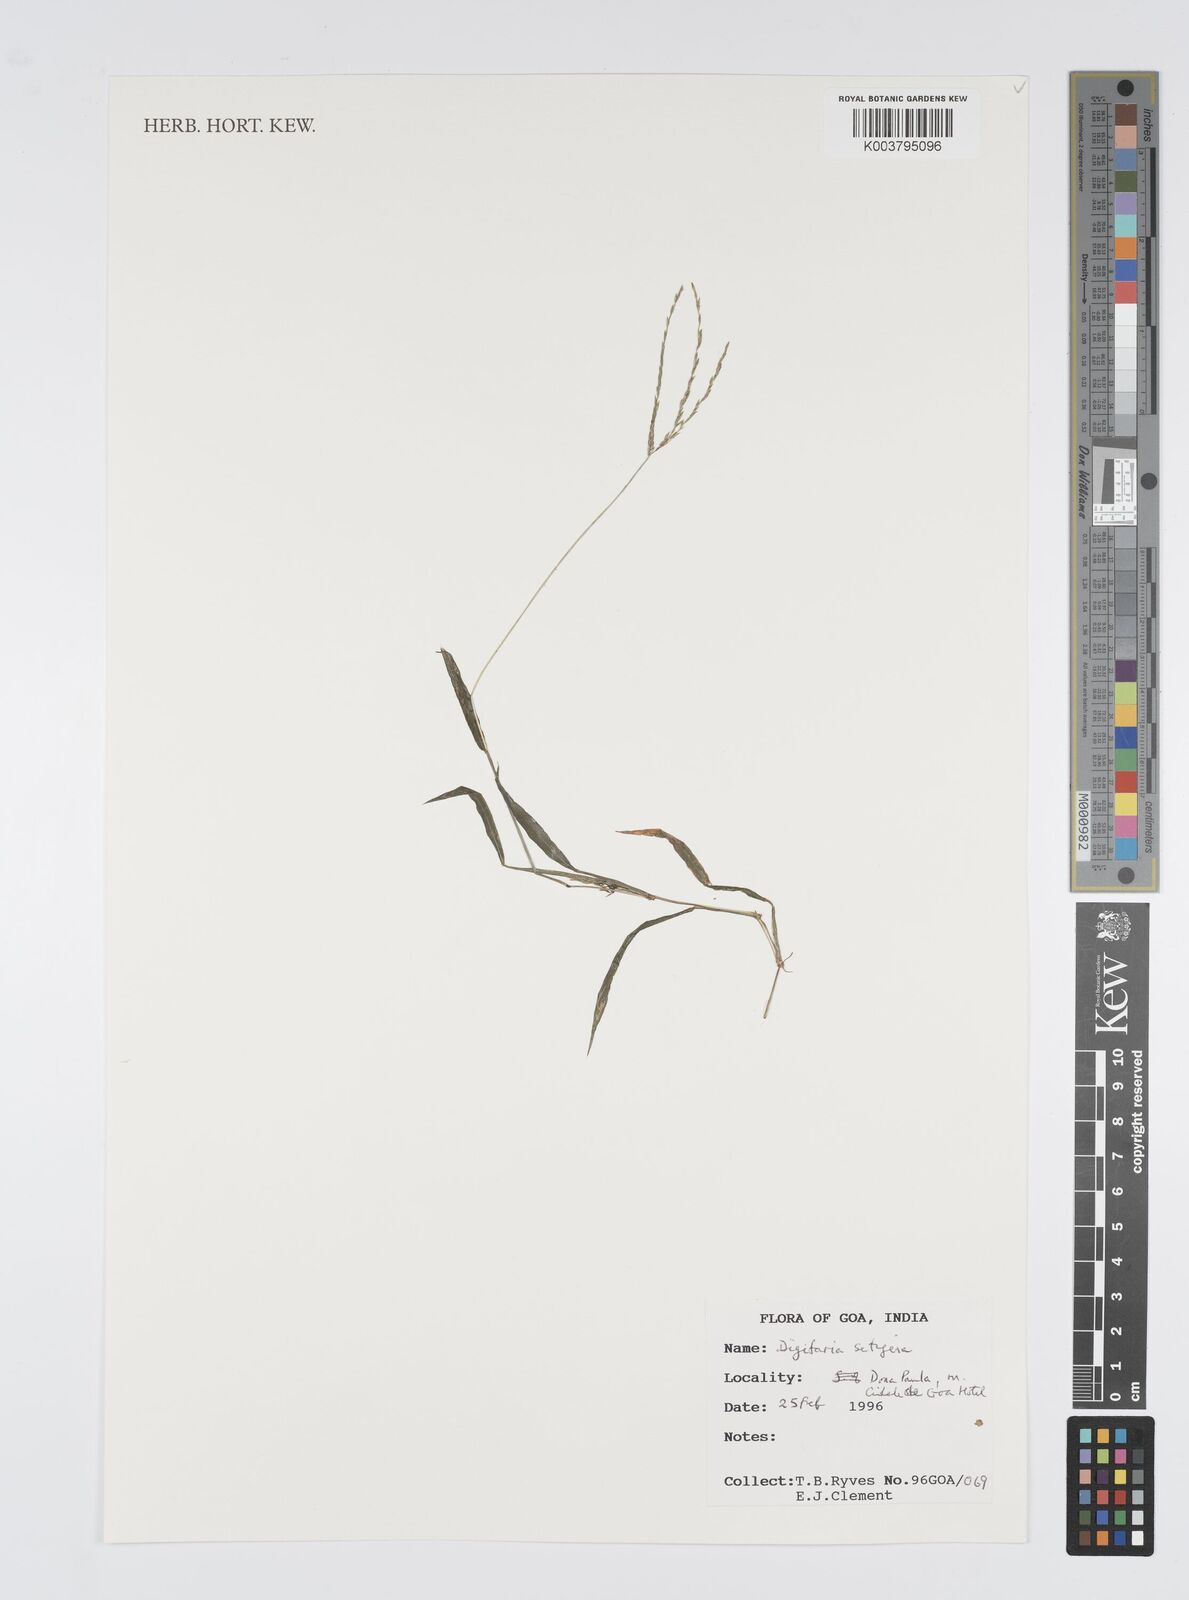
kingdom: Plantae
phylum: Tracheophyta
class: Liliopsida
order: Poales
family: Poaceae
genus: Digitaria
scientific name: Digitaria setigera
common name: East indian crabgrass
